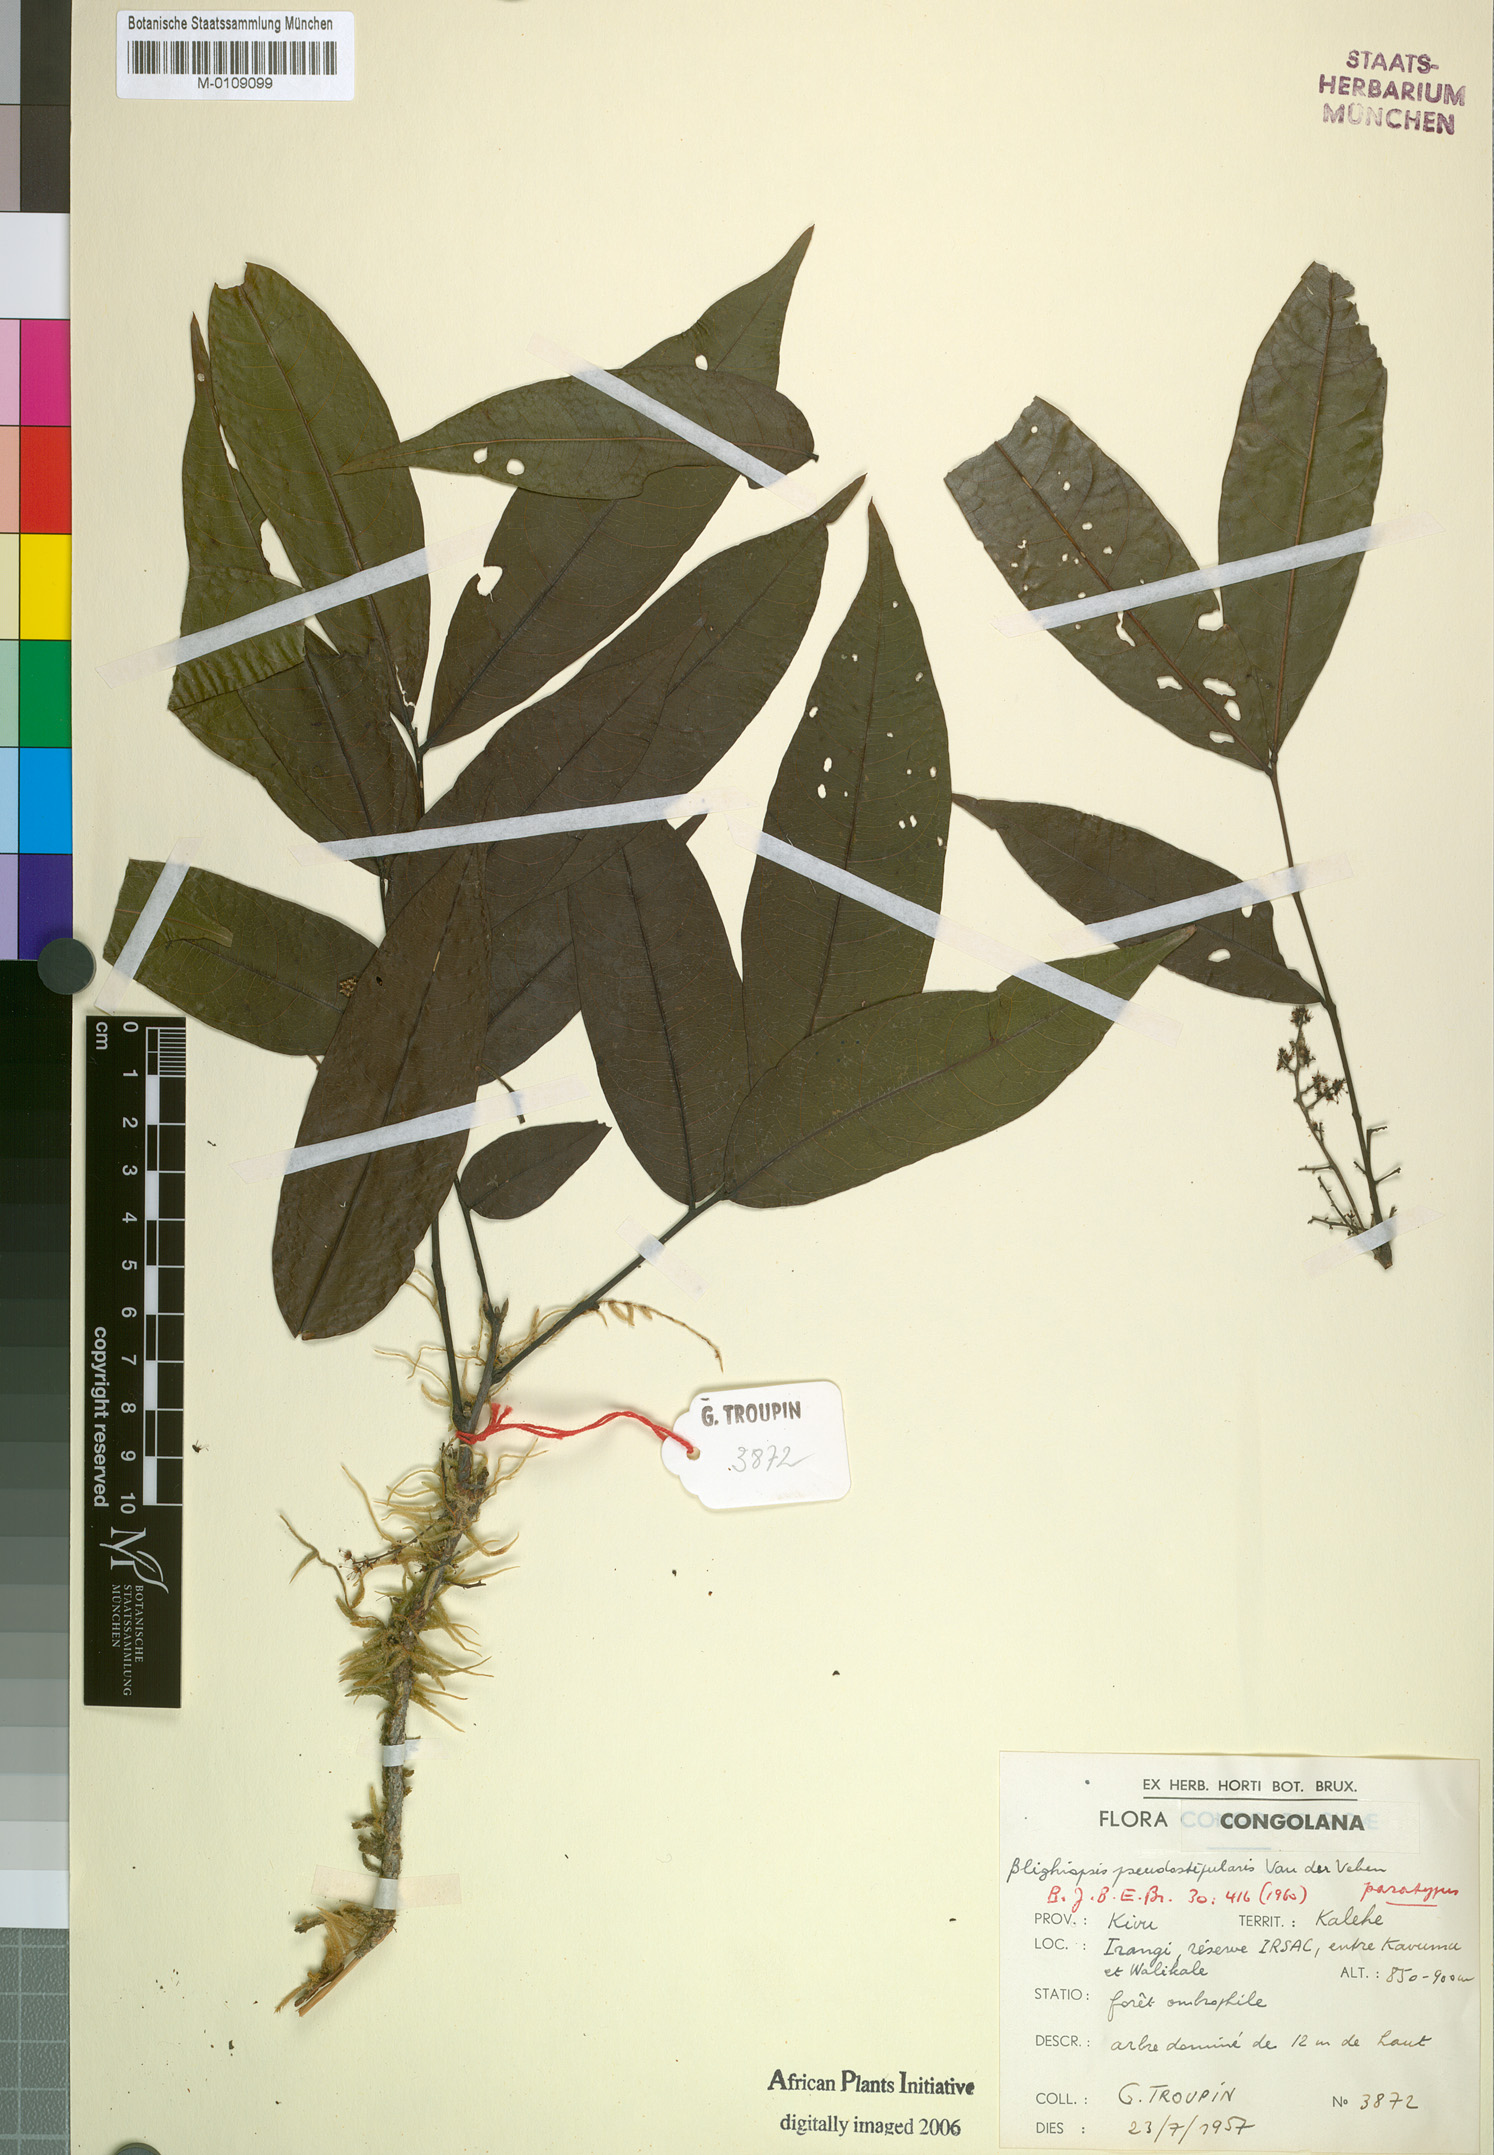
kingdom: Plantae
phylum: Tracheophyta
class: Magnoliopsida
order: Sapindales
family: Sapindaceae
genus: Blighiopsis
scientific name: Blighiopsis pseudostipularis
